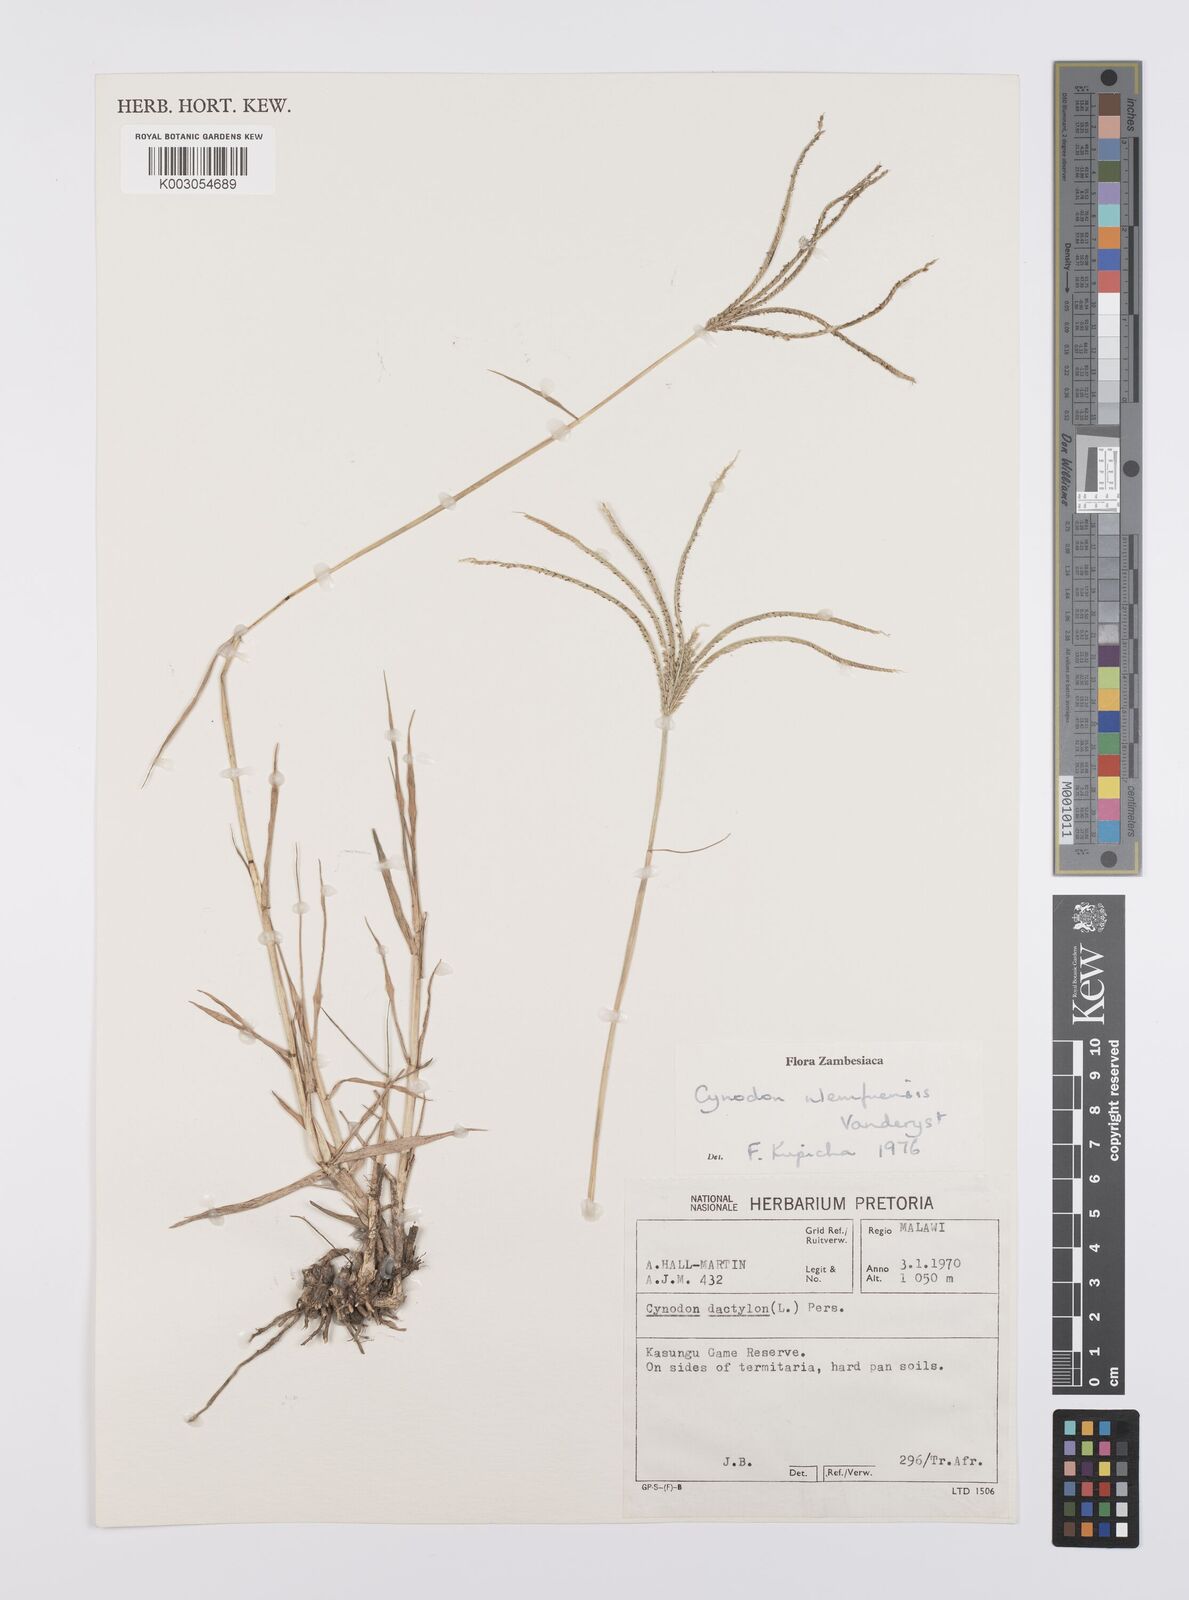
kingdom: Plantae
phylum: Tracheophyta
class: Liliopsida
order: Poales
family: Poaceae
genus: Cynodon
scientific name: Cynodon nlemfuensis
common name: African bermudagrass
